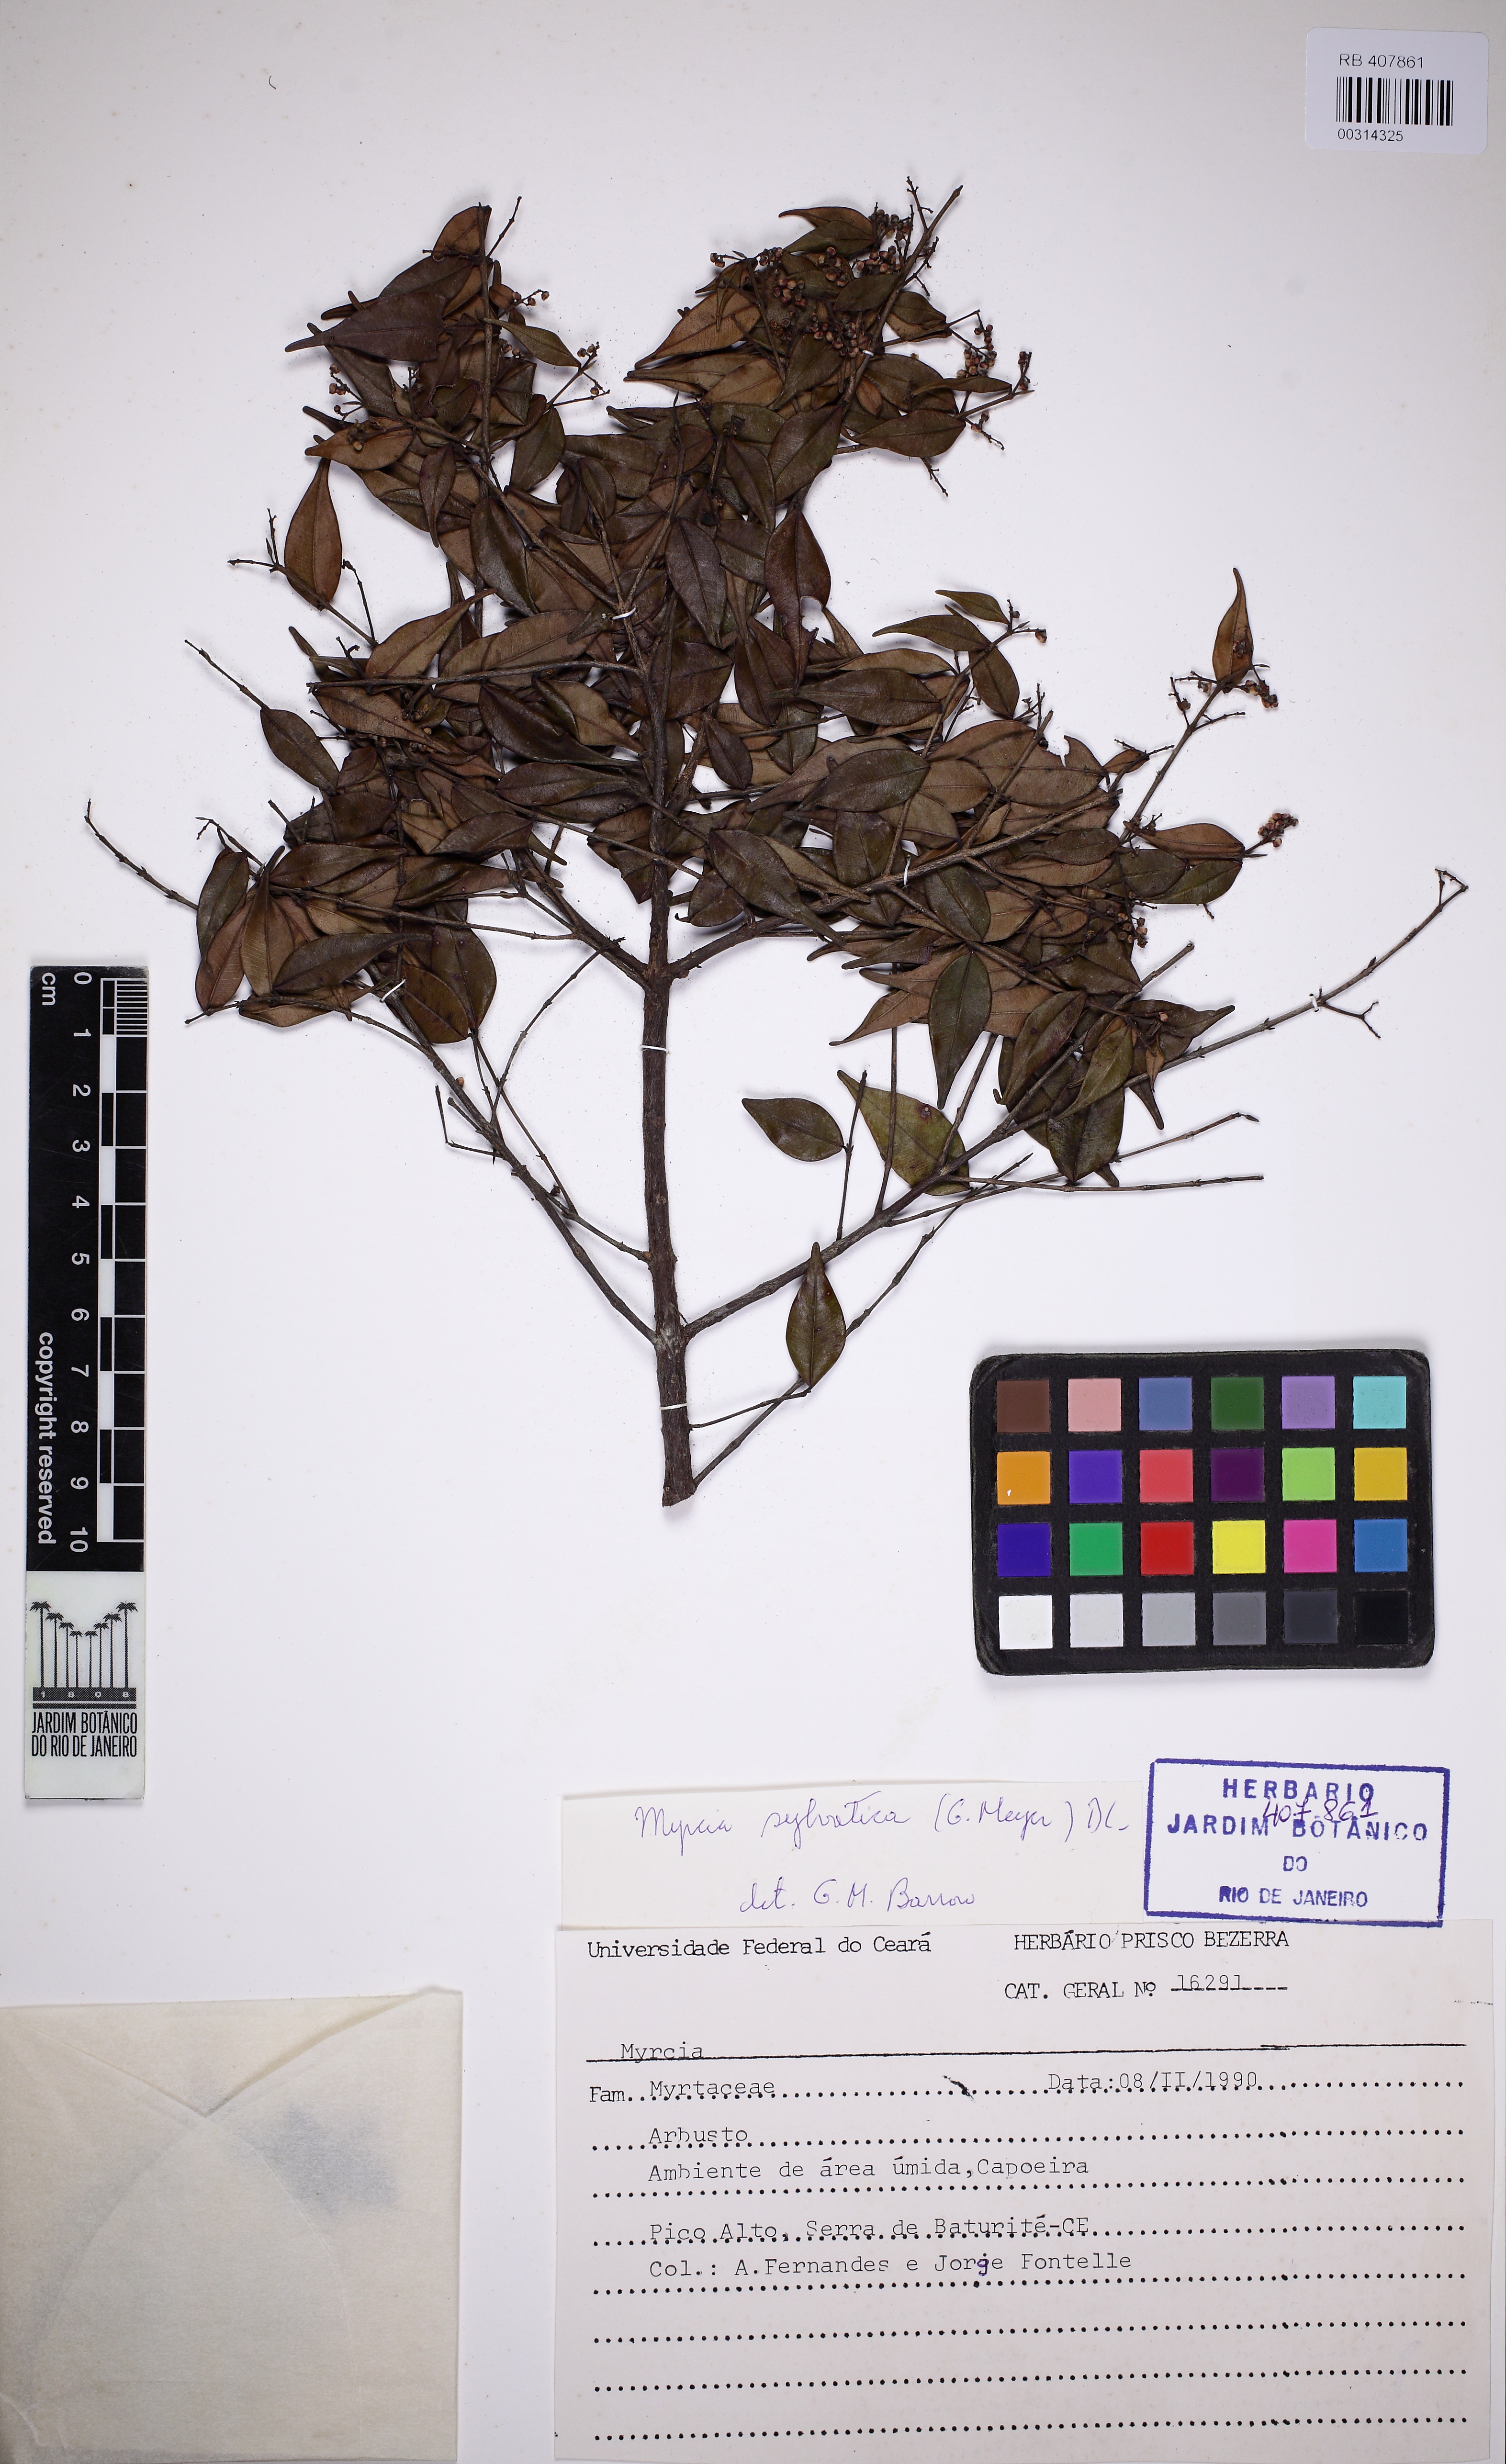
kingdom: Plantae
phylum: Tracheophyta
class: Magnoliopsida
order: Myrtales
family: Myrtaceae
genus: Myrcia
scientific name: Myrcia sylvatica
